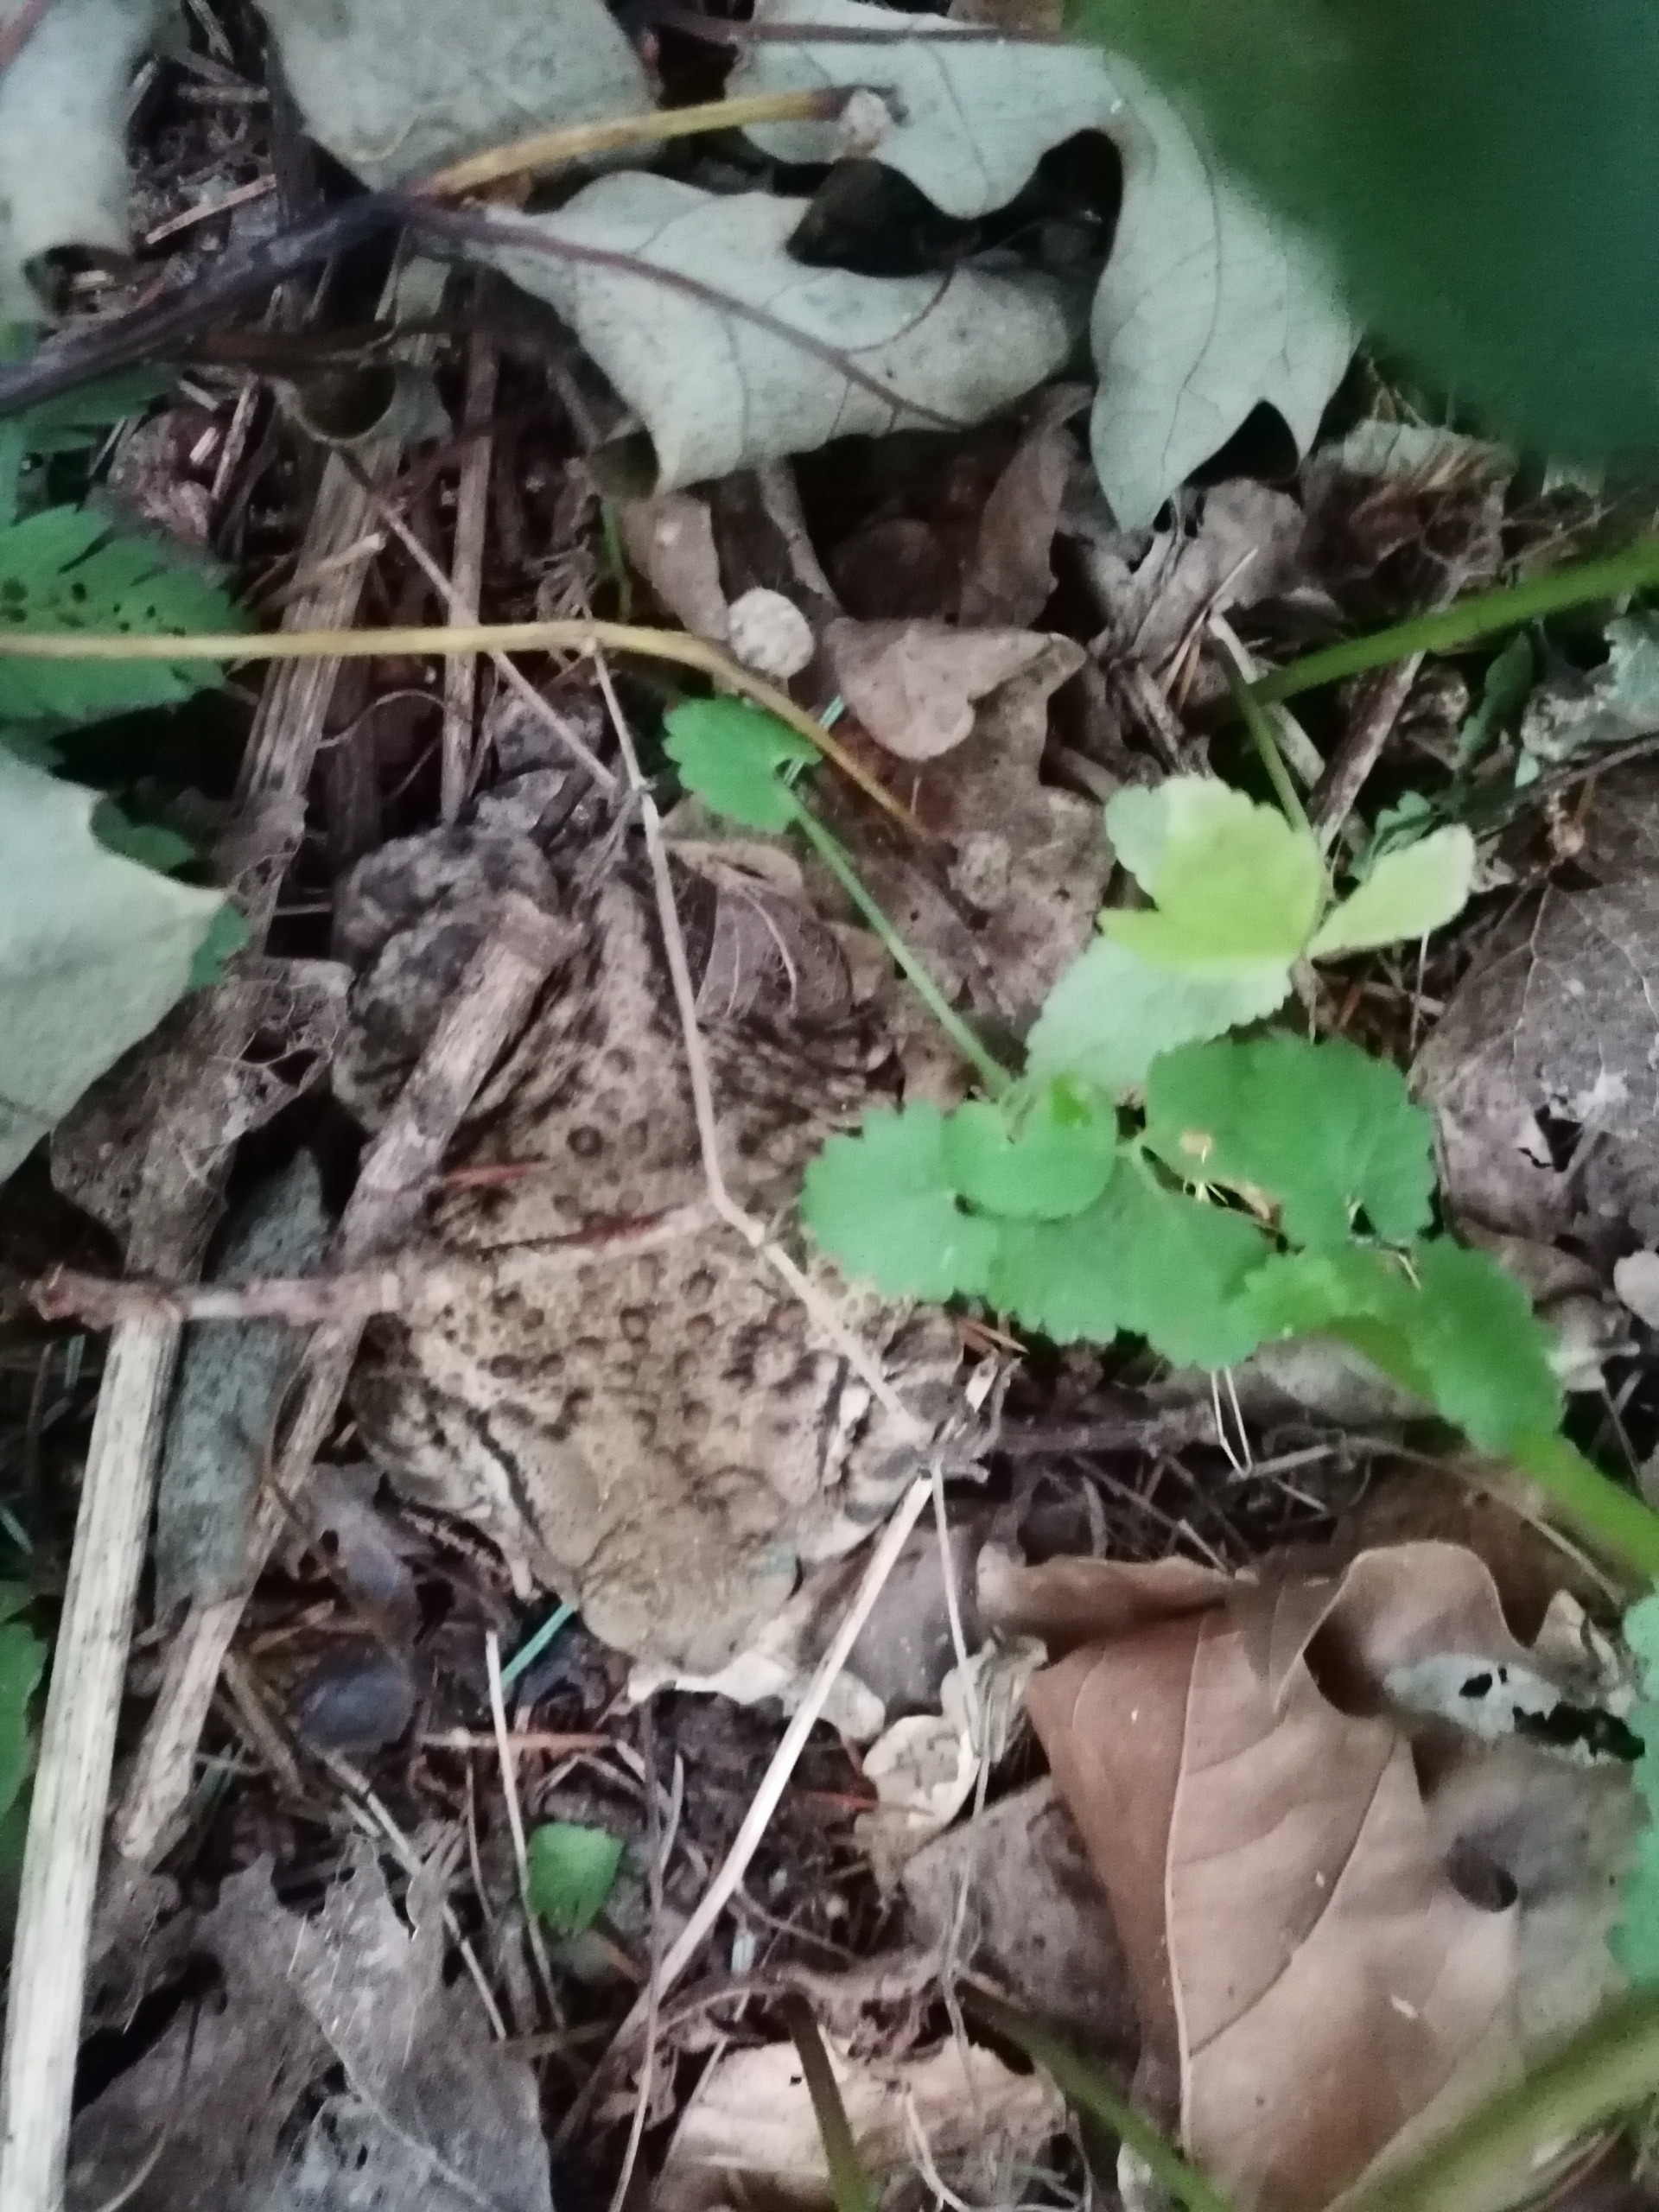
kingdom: Animalia
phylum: Chordata
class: Amphibia
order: Anura
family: Bufonidae
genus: Bufo
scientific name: Bufo bufo
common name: Skrubtudse
